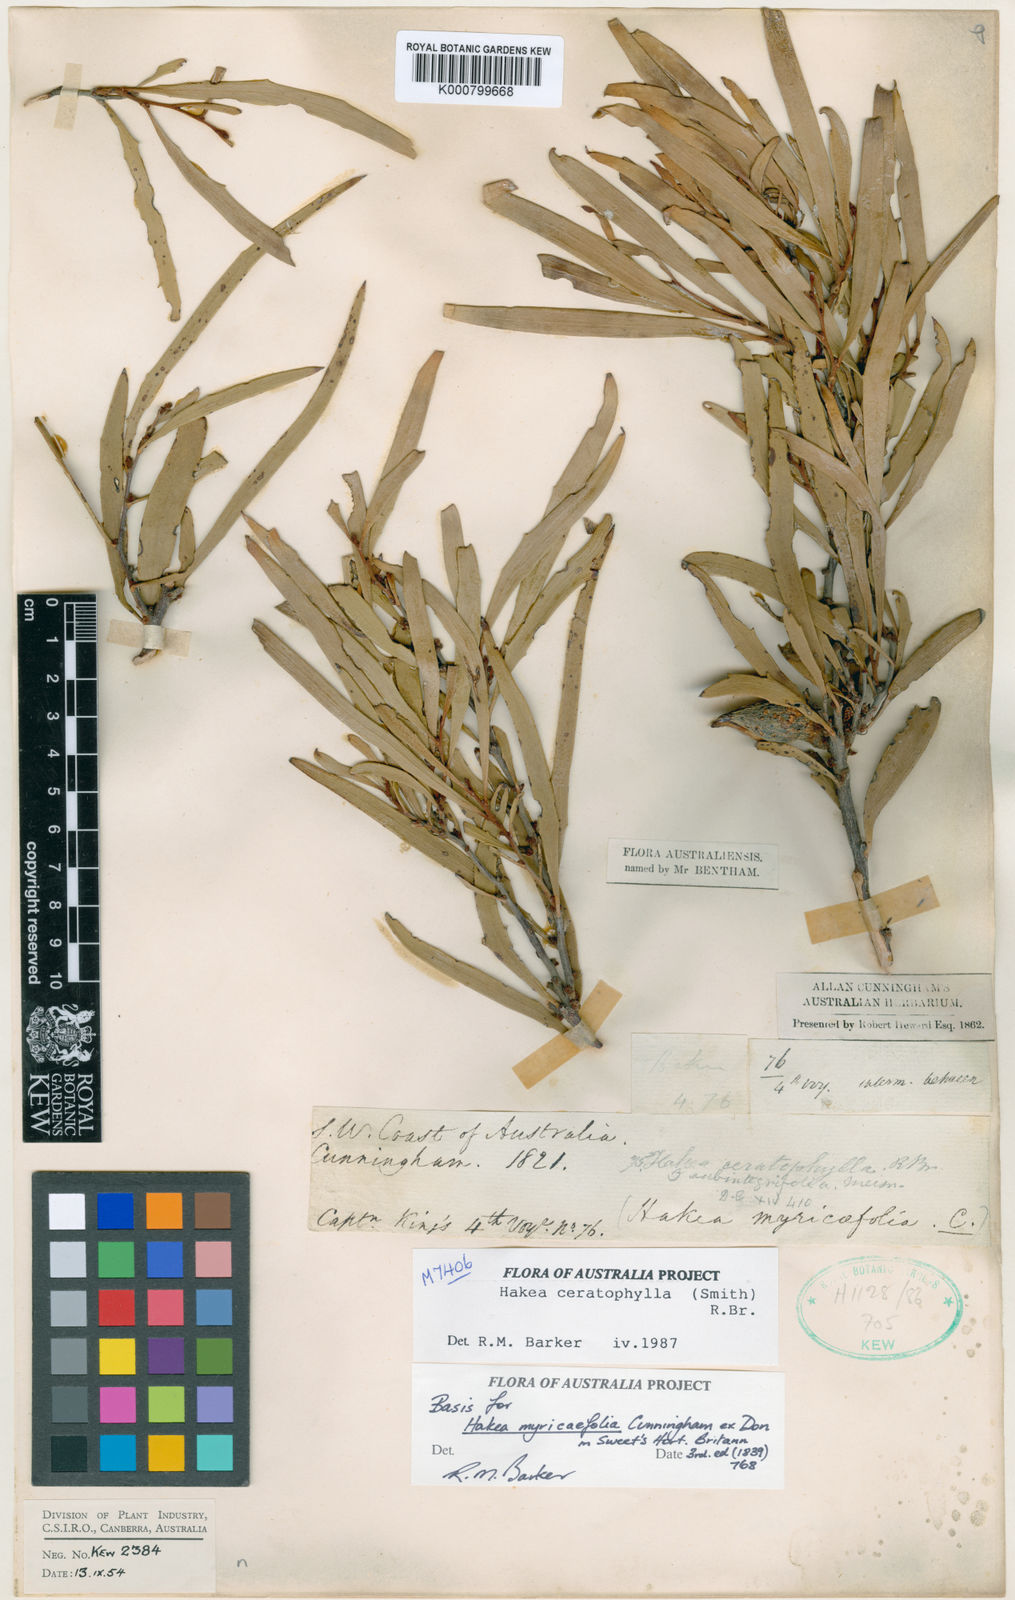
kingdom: Plantae
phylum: Tracheophyta
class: Magnoliopsida
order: Proteales
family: Proteaceae
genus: Hakea
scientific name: Hakea ceratophylla
